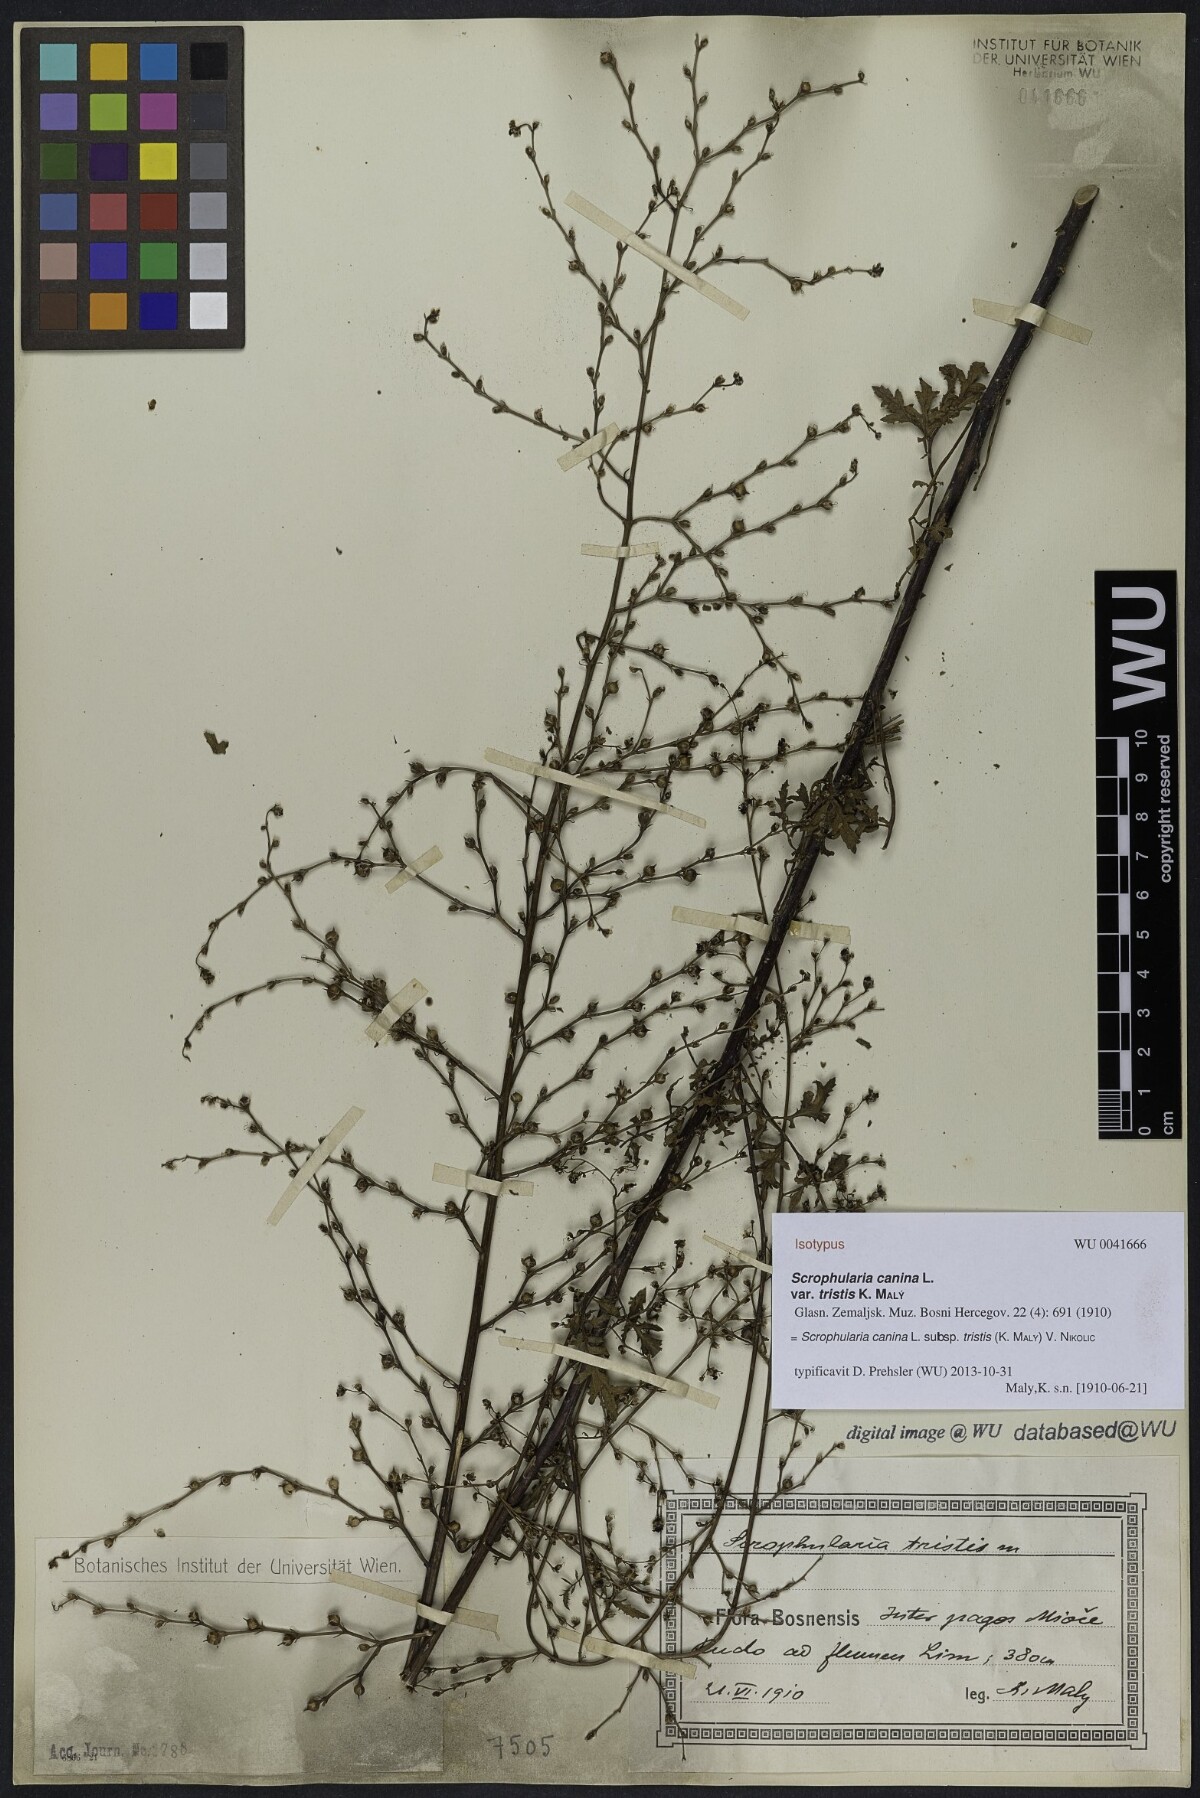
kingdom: Plantae
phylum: Tracheophyta
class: Magnoliopsida
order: Lamiales
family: Scrophulariaceae
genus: Scrophularia
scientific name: Scrophularia canina
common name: French figwort
